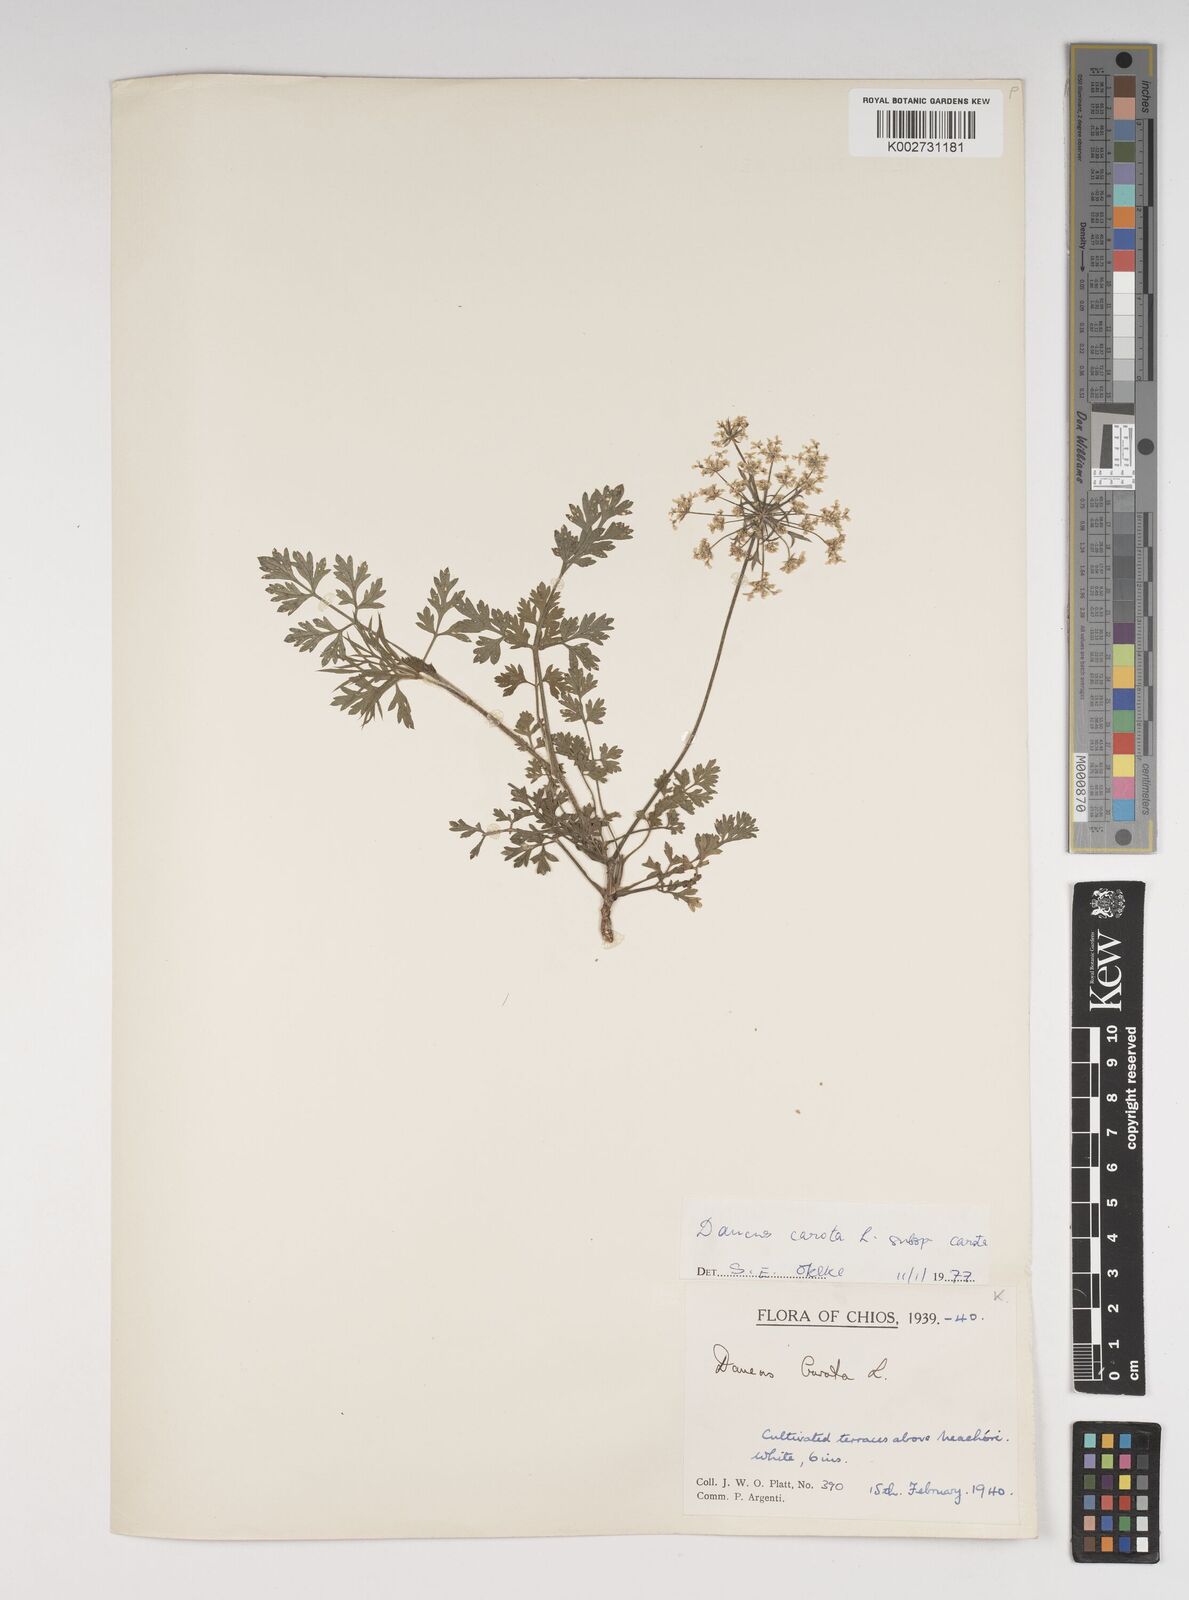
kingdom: Plantae
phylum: Tracheophyta
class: Magnoliopsida
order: Apiales
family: Apiaceae
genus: Daucus
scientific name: Daucus carota
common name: Wild carrot
